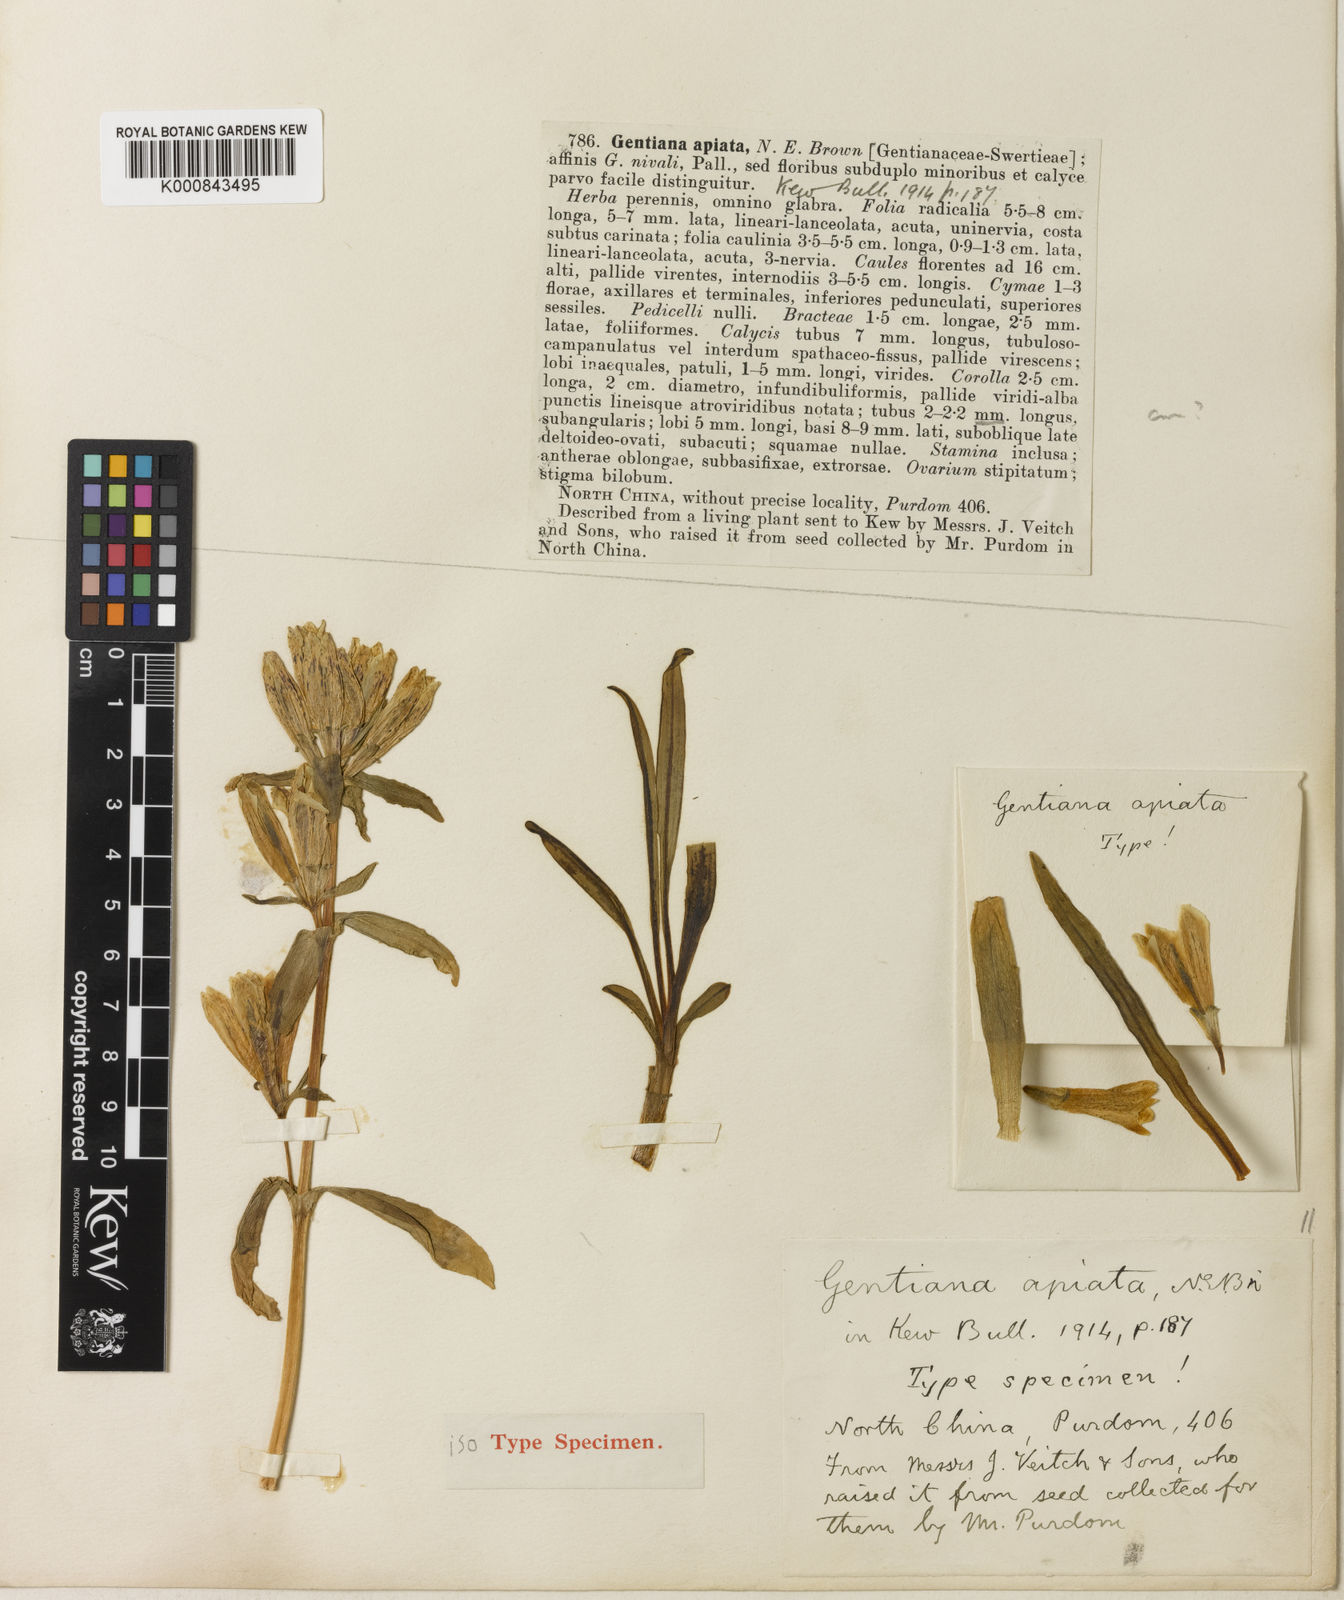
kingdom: Plantae
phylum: Tracheophyta
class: Magnoliopsida
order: Gentianales
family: Gentianaceae
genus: Gentiana
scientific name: Gentiana
